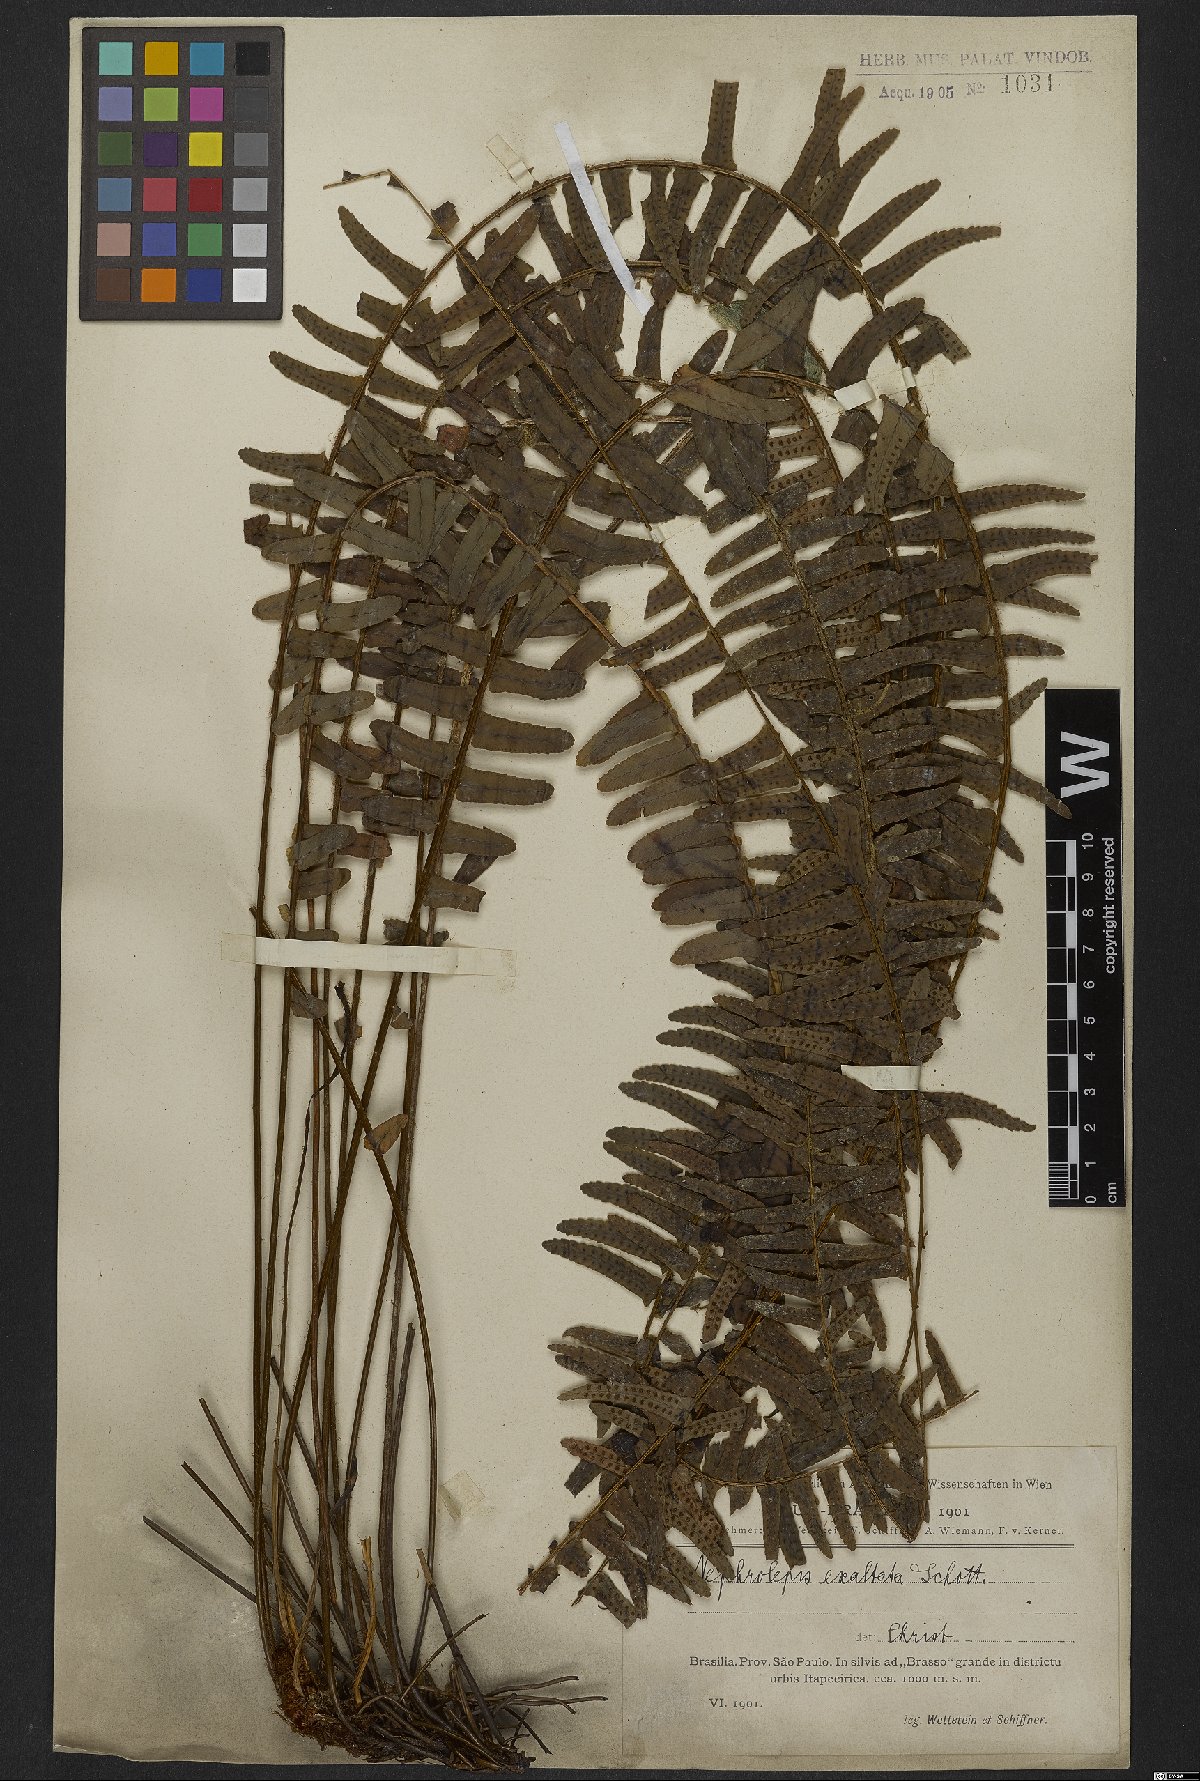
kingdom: Plantae
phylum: Tracheophyta
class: Polypodiopsida
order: Polypodiales
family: Nephrolepidaceae
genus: Nephrolepis
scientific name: Nephrolepis exaltata
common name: Sword fern
